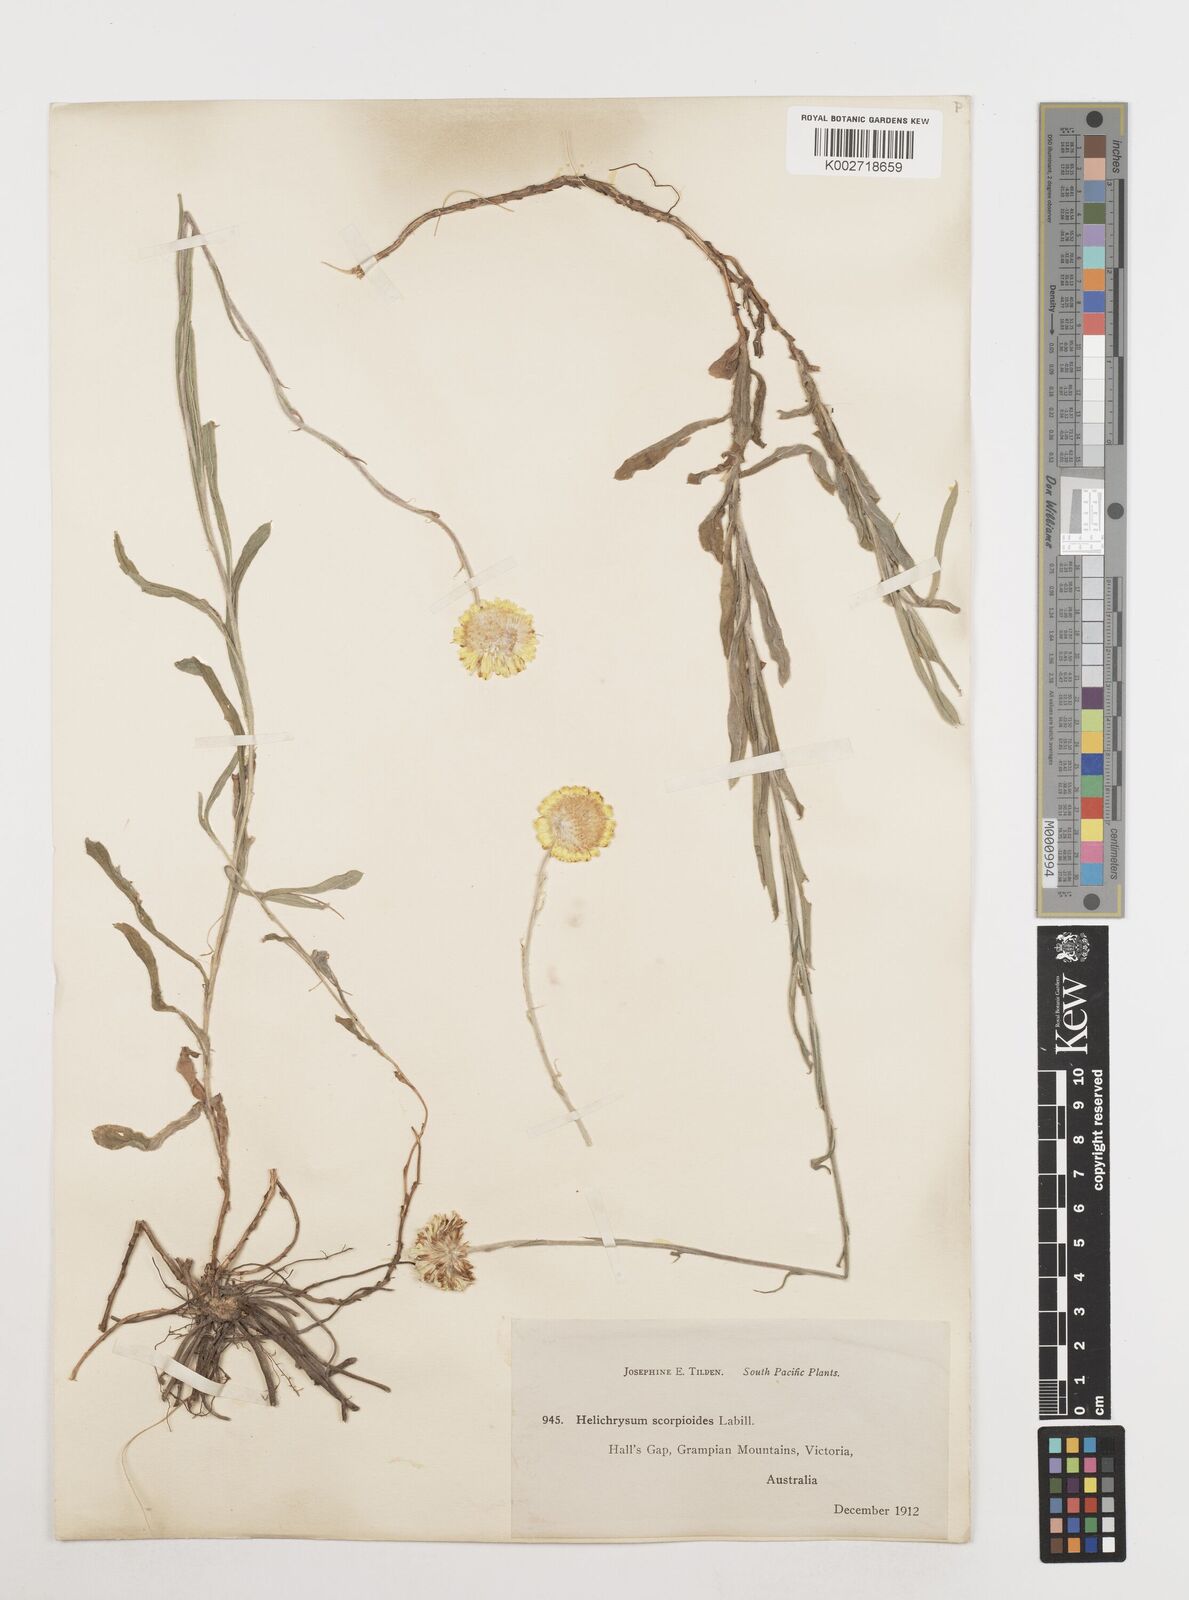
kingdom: Plantae
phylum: Tracheophyta
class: Magnoliopsida
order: Asterales
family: Asteraceae
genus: Coronidium
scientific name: Coronidium scorpioides
